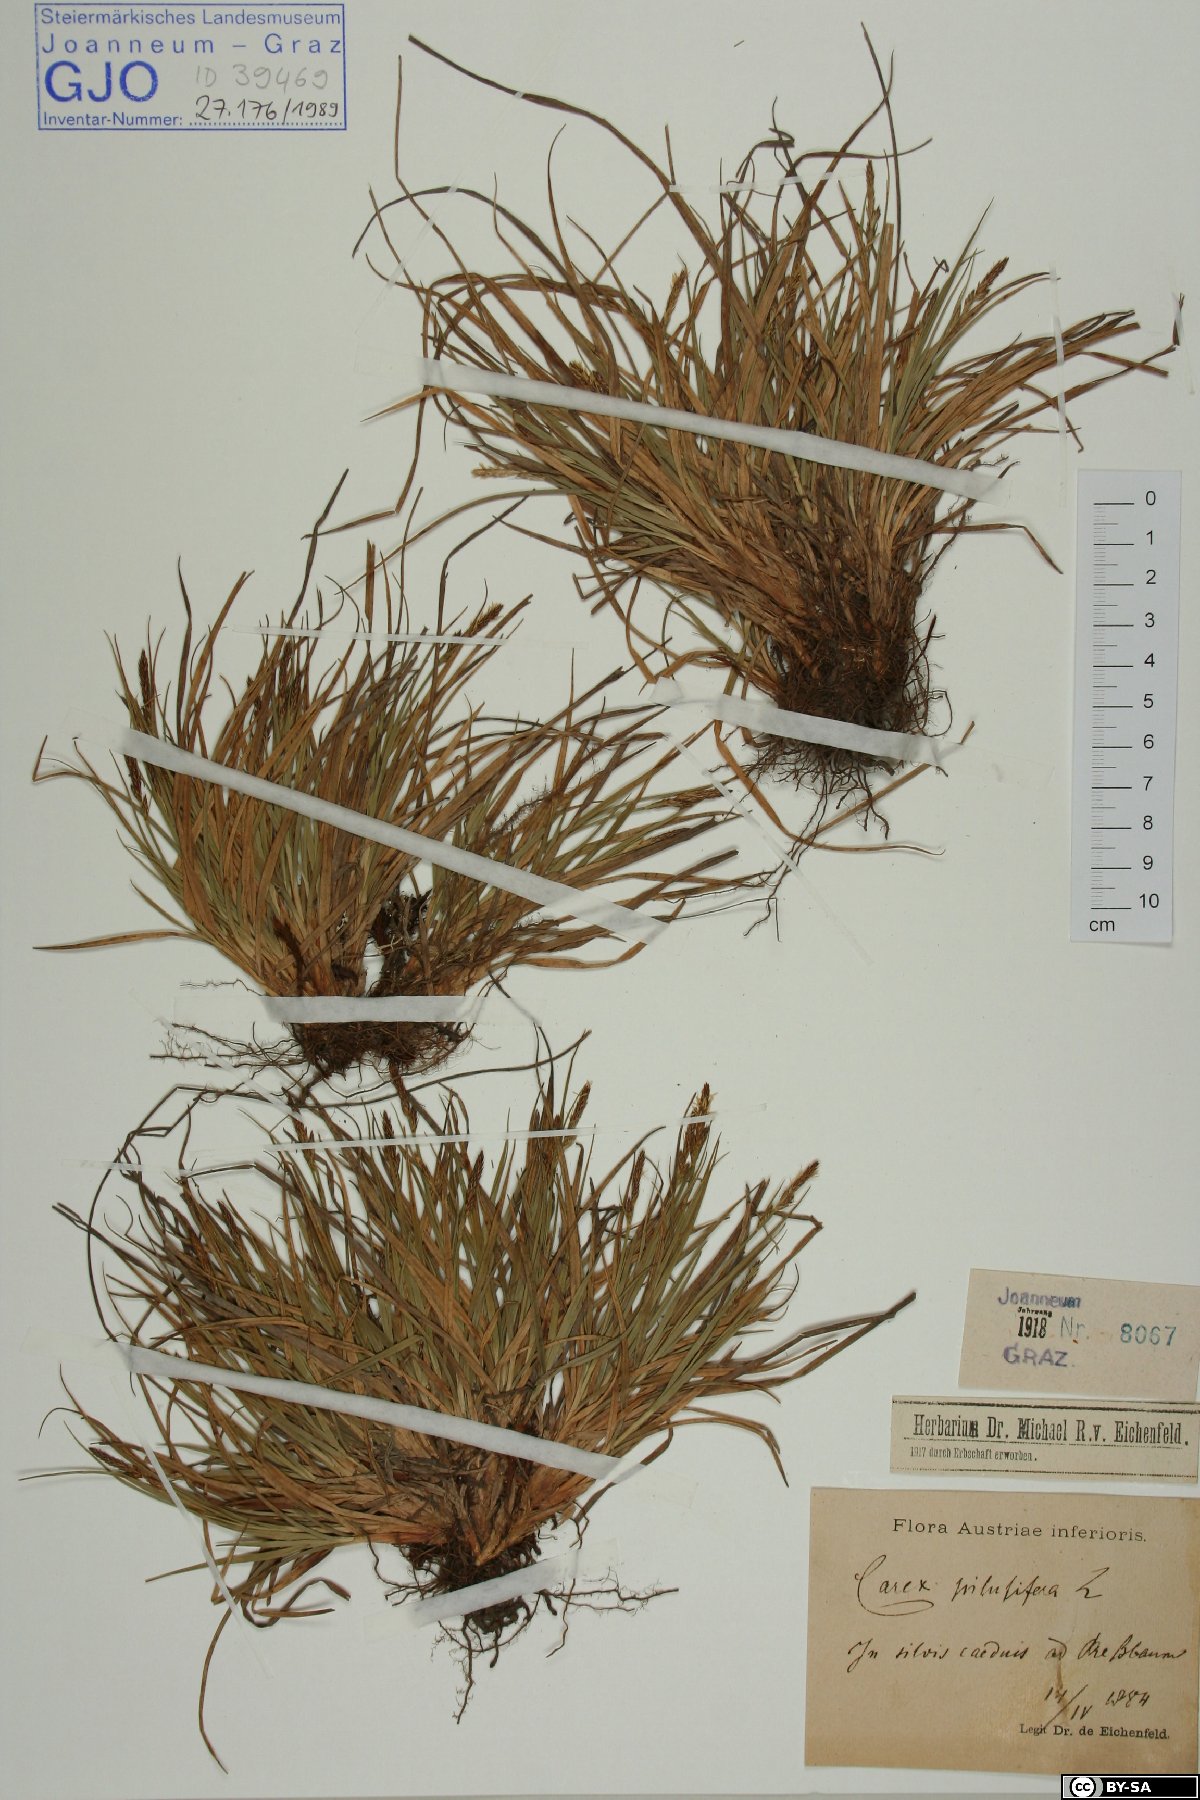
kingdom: Plantae
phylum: Tracheophyta
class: Liliopsida
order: Poales
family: Cyperaceae
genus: Carex
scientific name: Carex pilulifera
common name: Pill sedge
